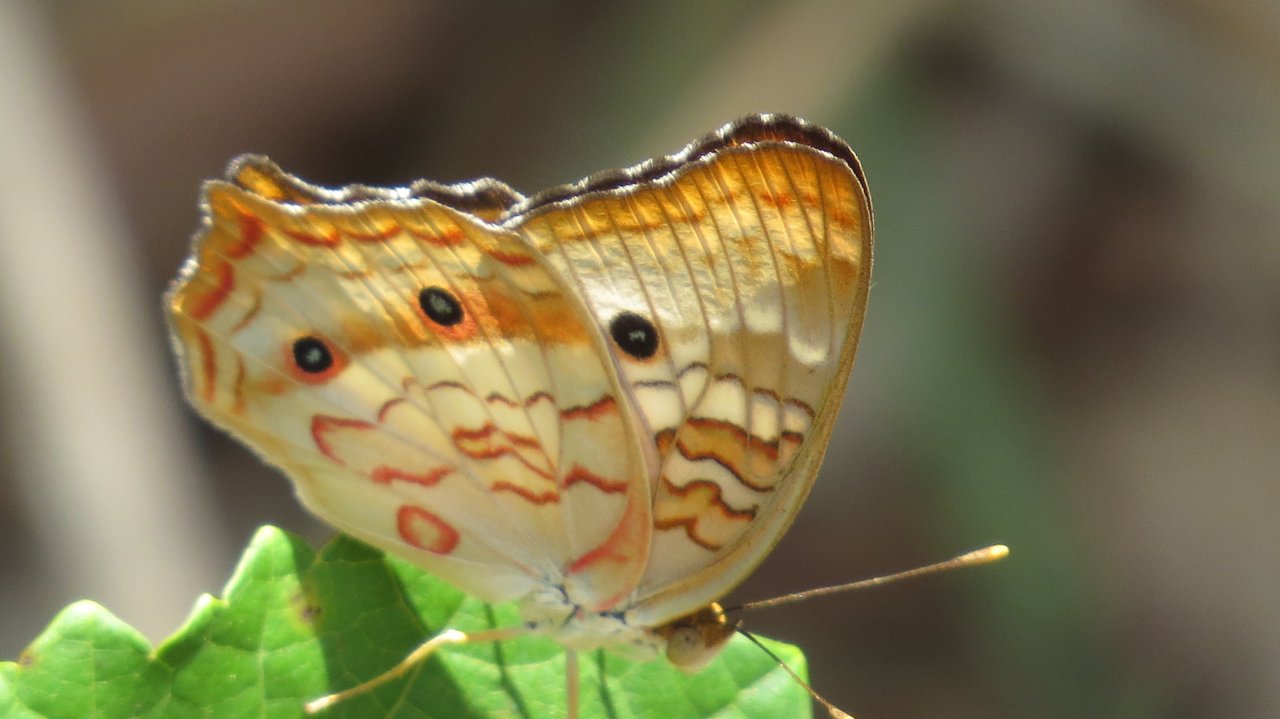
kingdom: Animalia
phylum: Arthropoda
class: Insecta
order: Lepidoptera
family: Nymphalidae
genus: Anartia
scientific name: Anartia jatrophae
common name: White Peacock
